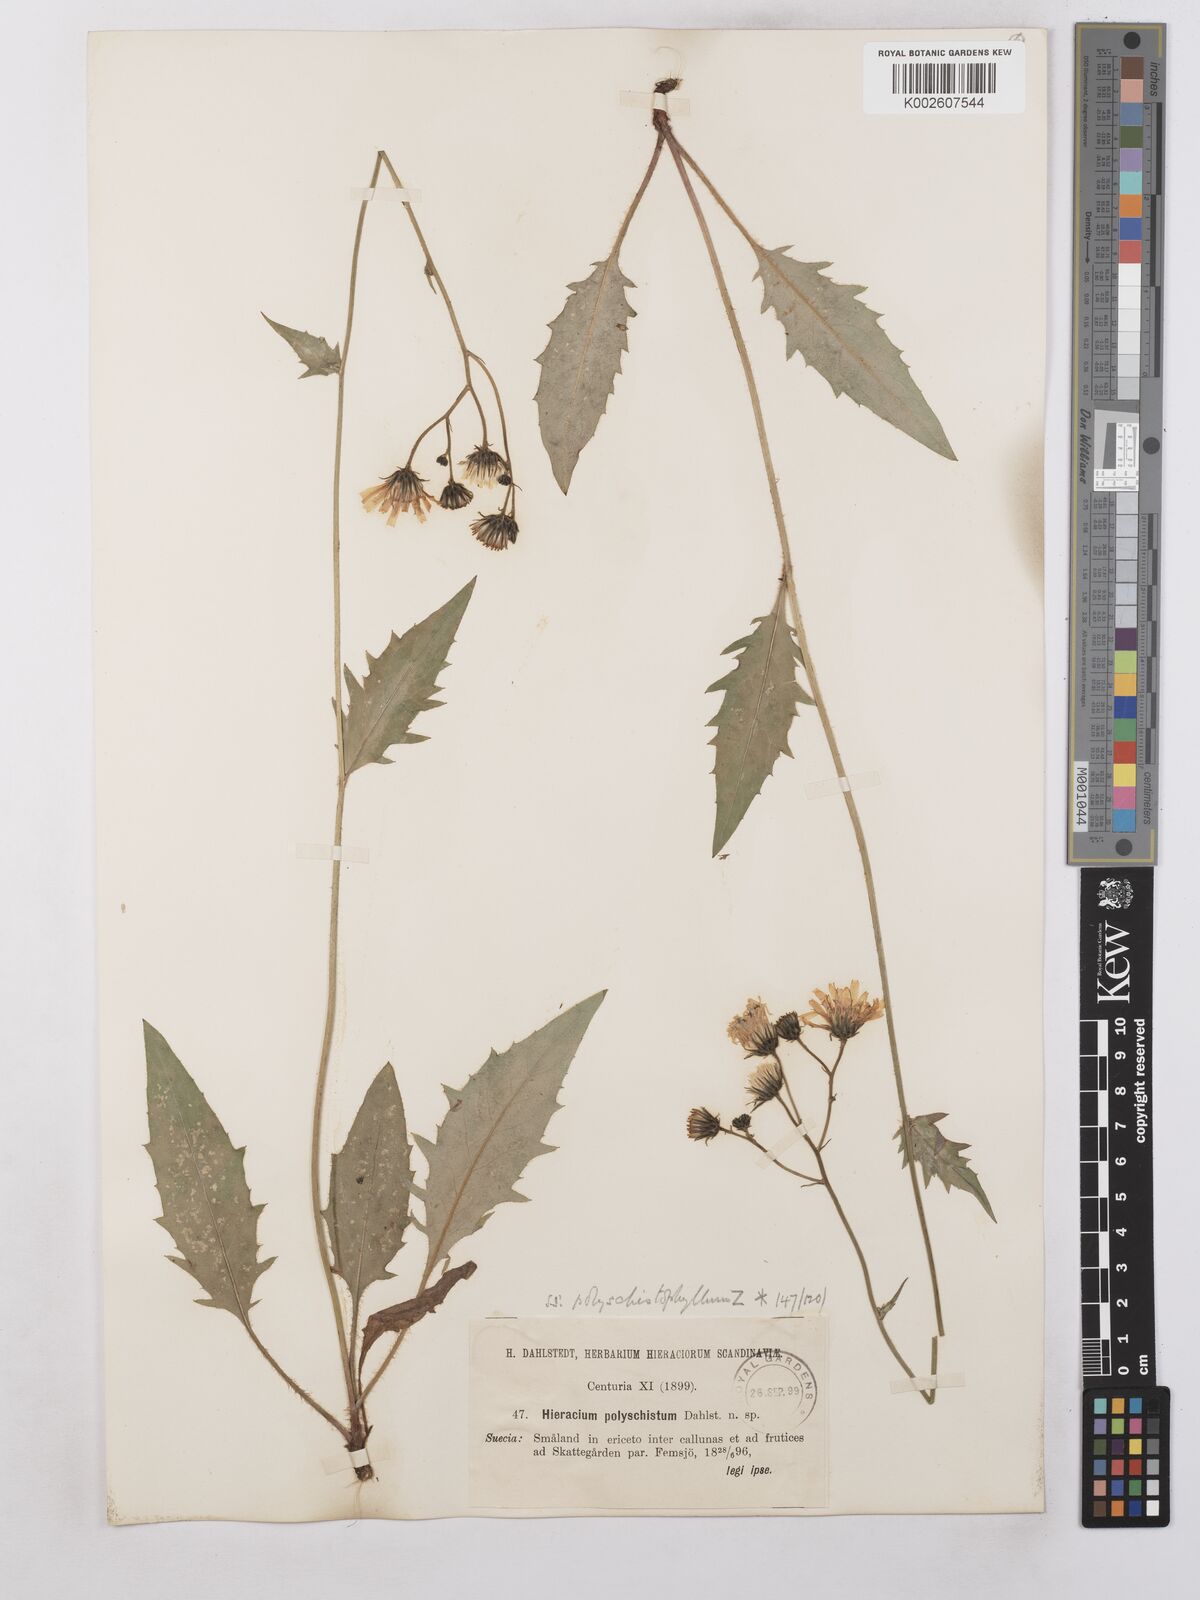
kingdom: Plantae
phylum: Tracheophyta
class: Magnoliopsida
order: Asterales
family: Asteraceae
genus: Hieracium
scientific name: Hieracium caesium
